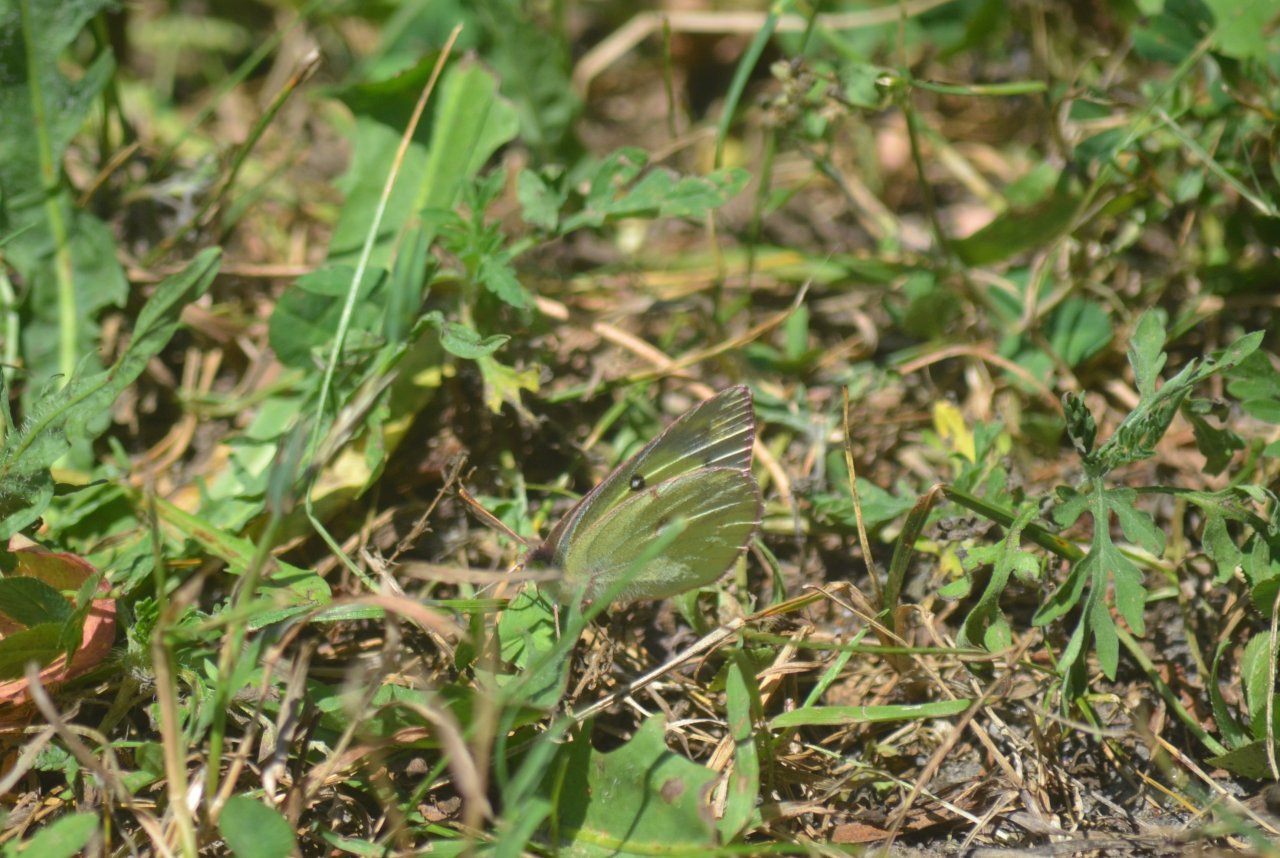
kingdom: Animalia
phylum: Arthropoda
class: Insecta
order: Lepidoptera
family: Pieridae
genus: Colias
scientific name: Colias philodice
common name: Clouded Sulphur
